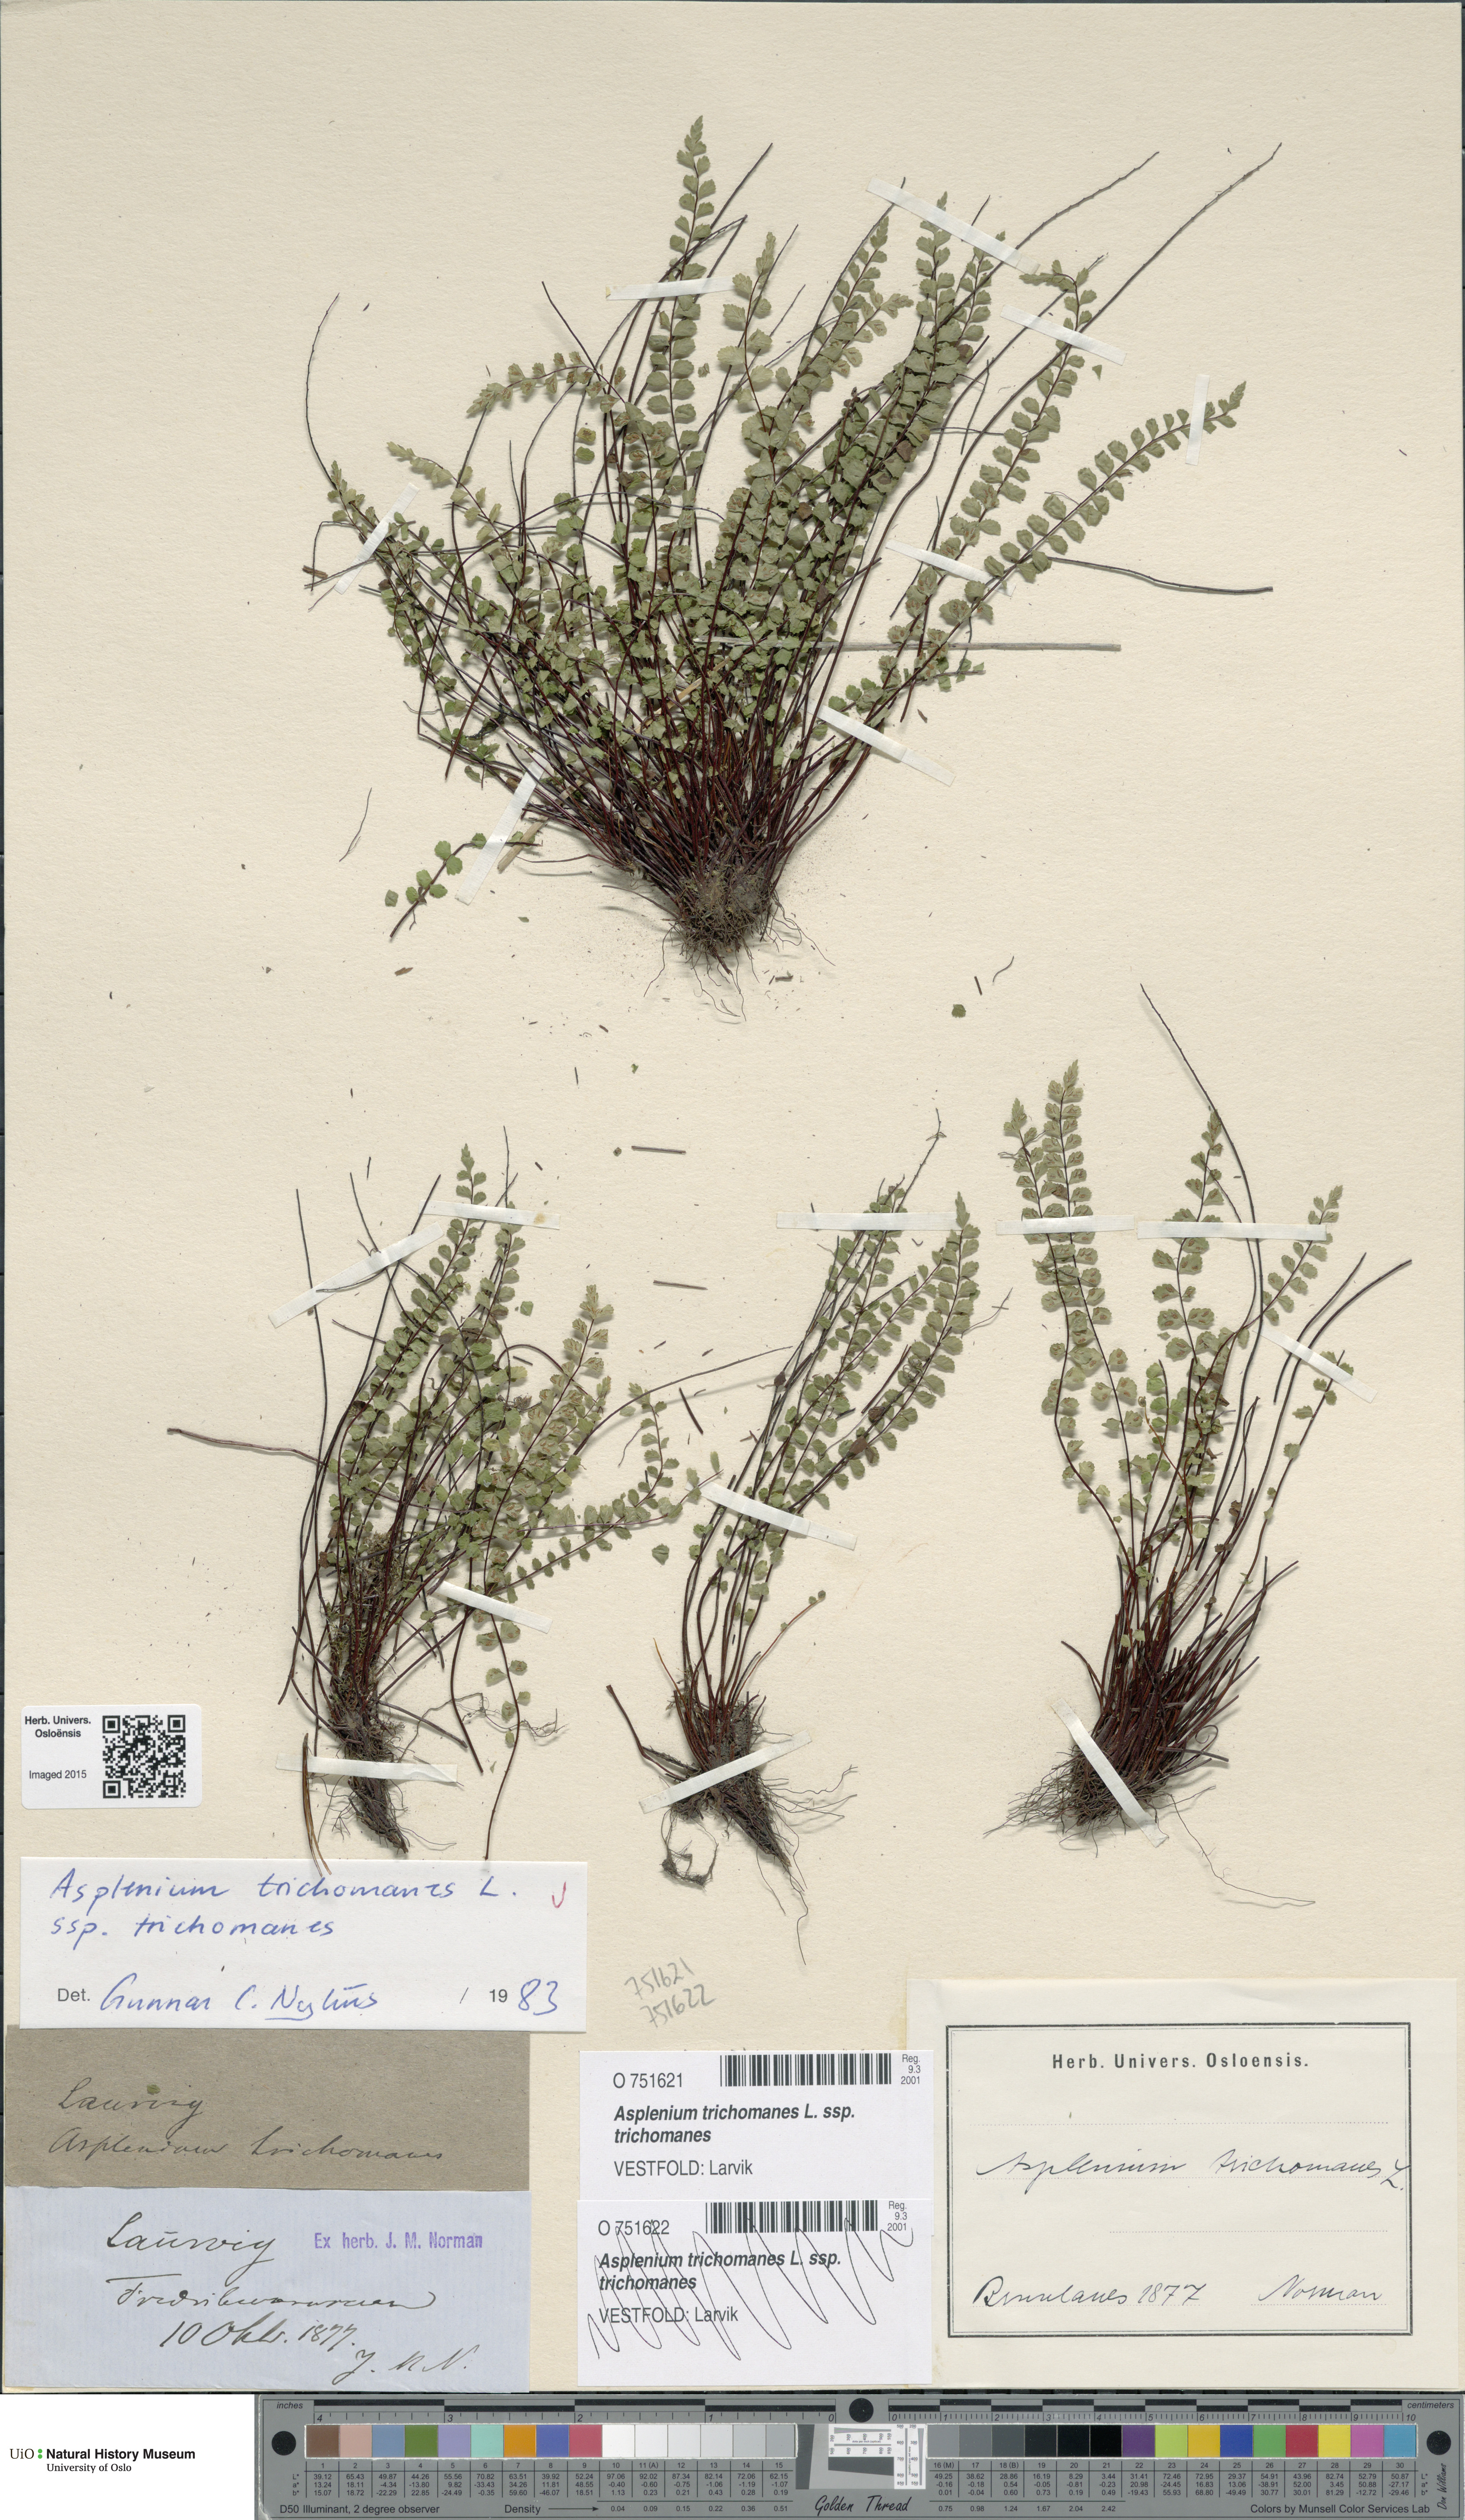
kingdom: Plantae
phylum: Tracheophyta
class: Magnoliopsida
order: Ericales
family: Primulaceae
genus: Lysimachia
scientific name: Lysimachia maritima
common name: Sea milkwort
